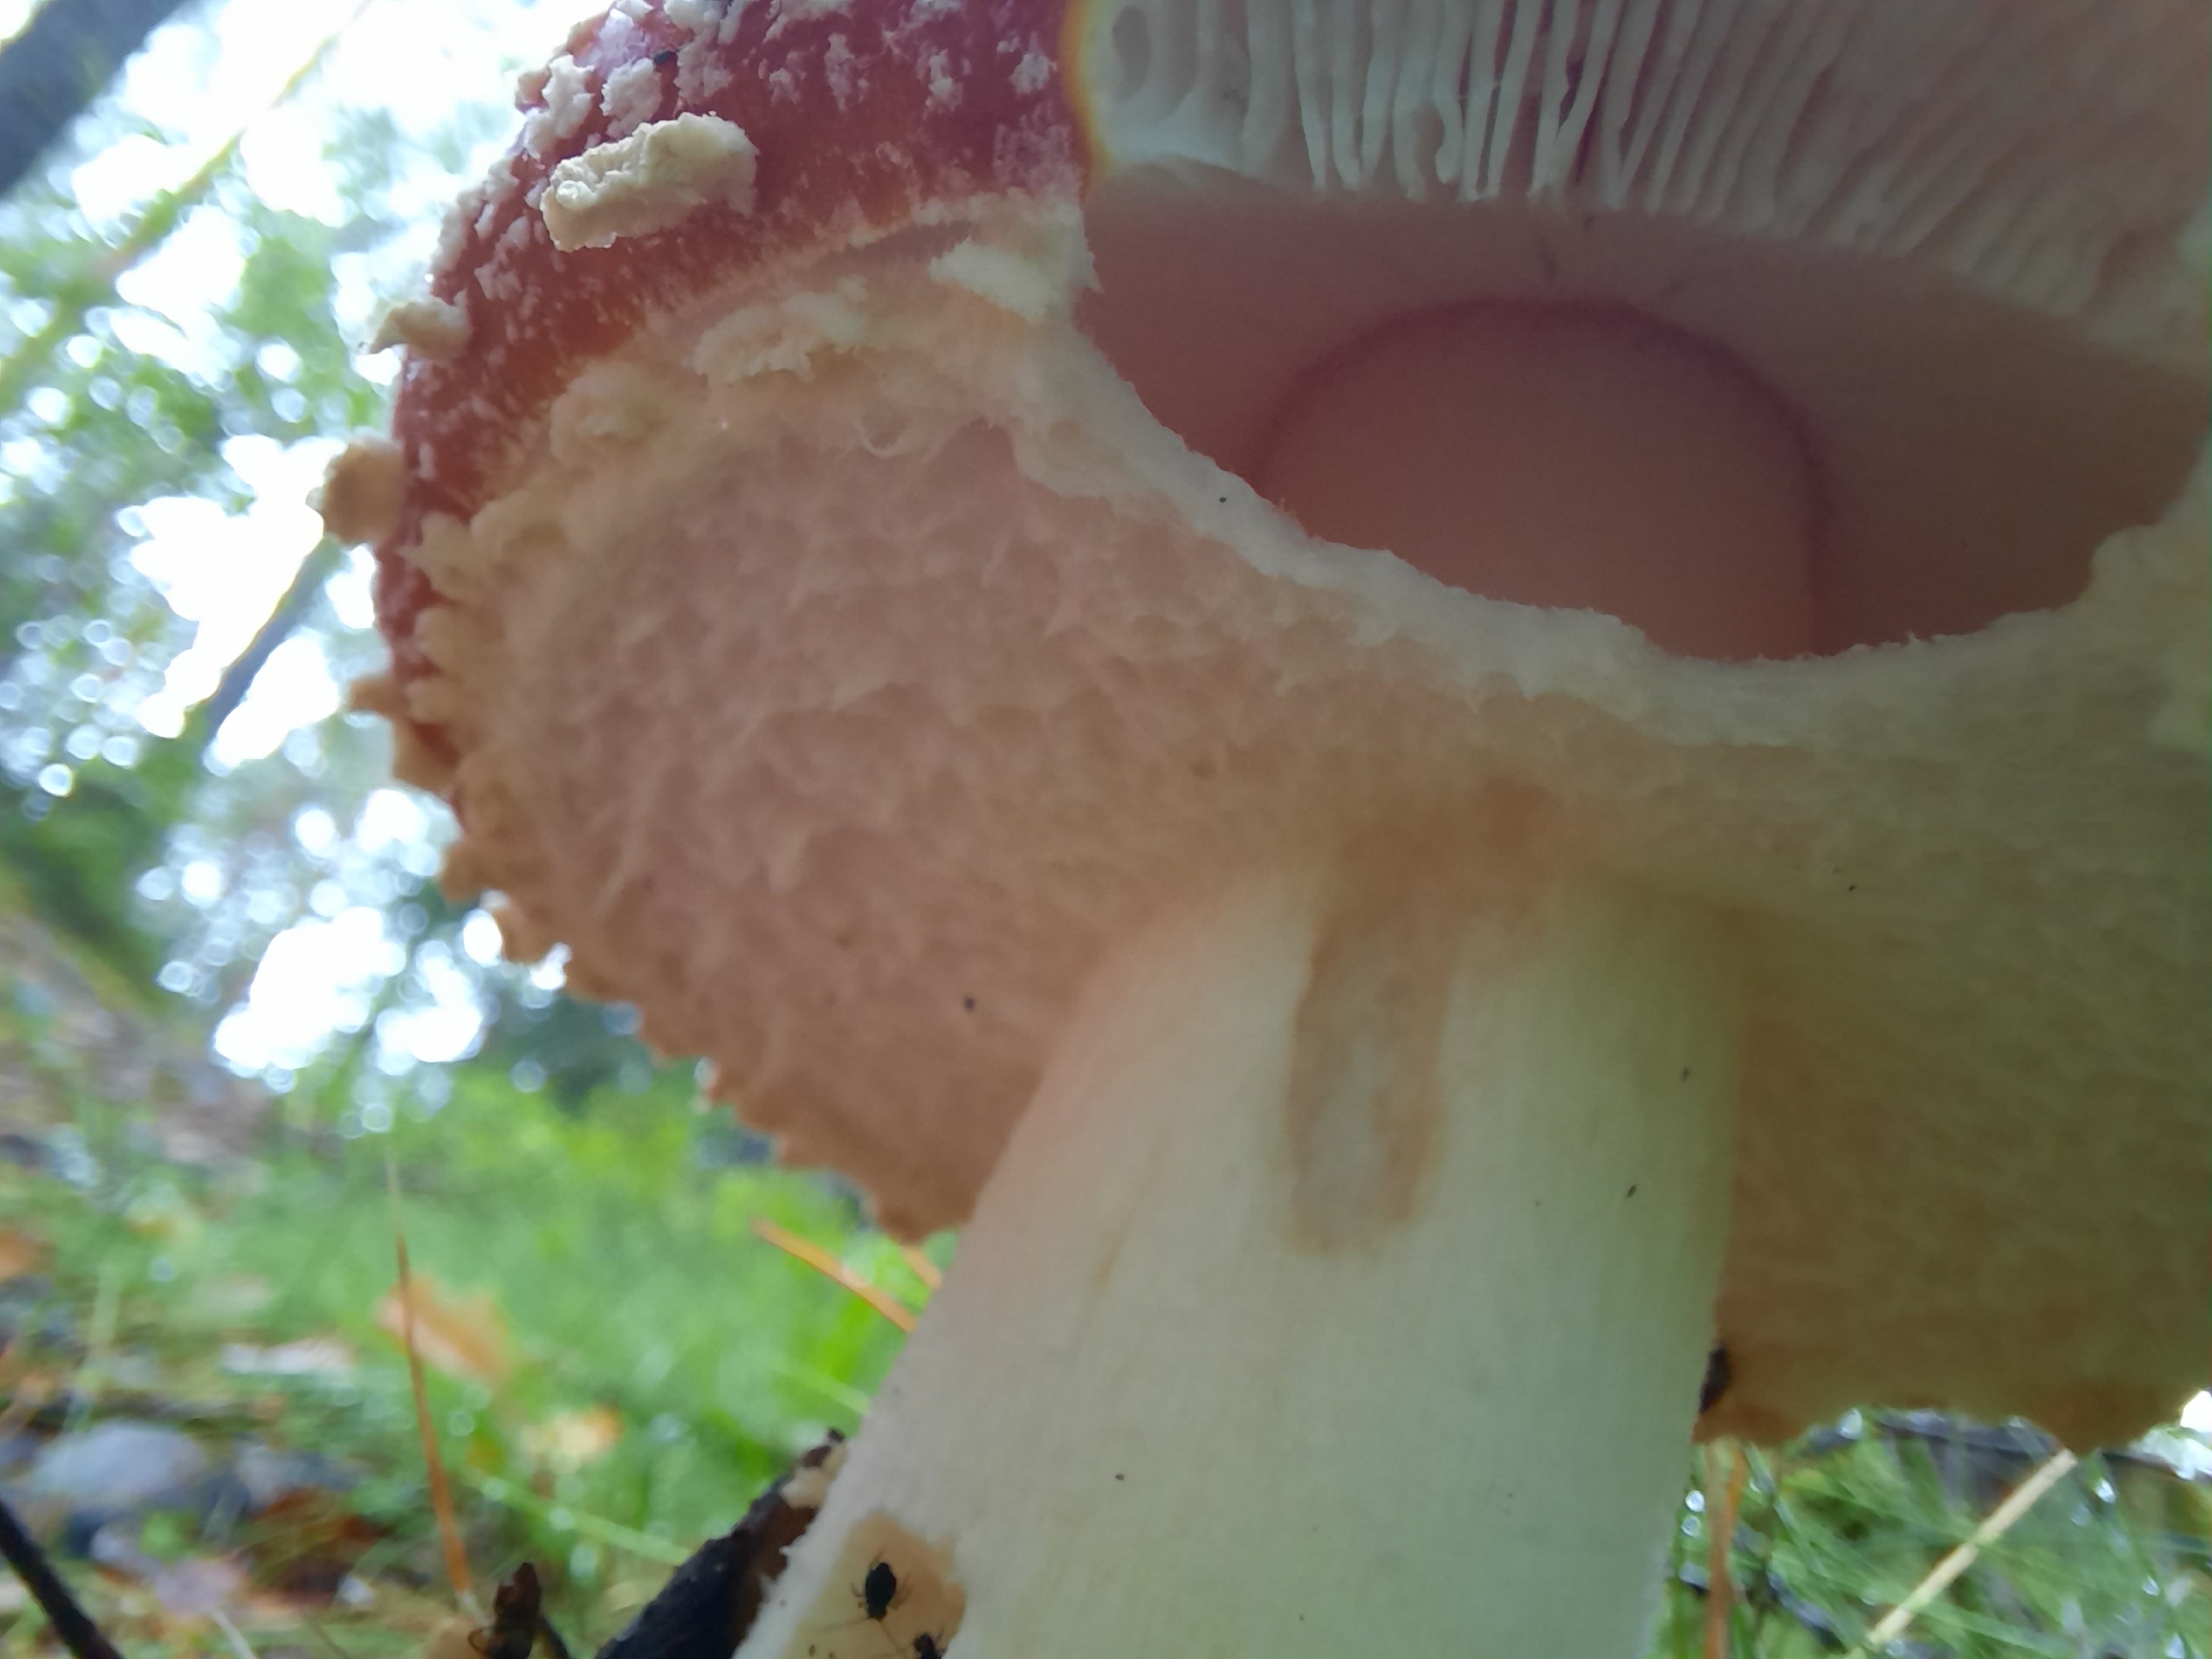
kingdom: Fungi
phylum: Basidiomycota
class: Agaricomycetes
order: Agaricales
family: Amanitaceae
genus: Amanita
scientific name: Amanita muscaria
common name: rød fluesvamp
